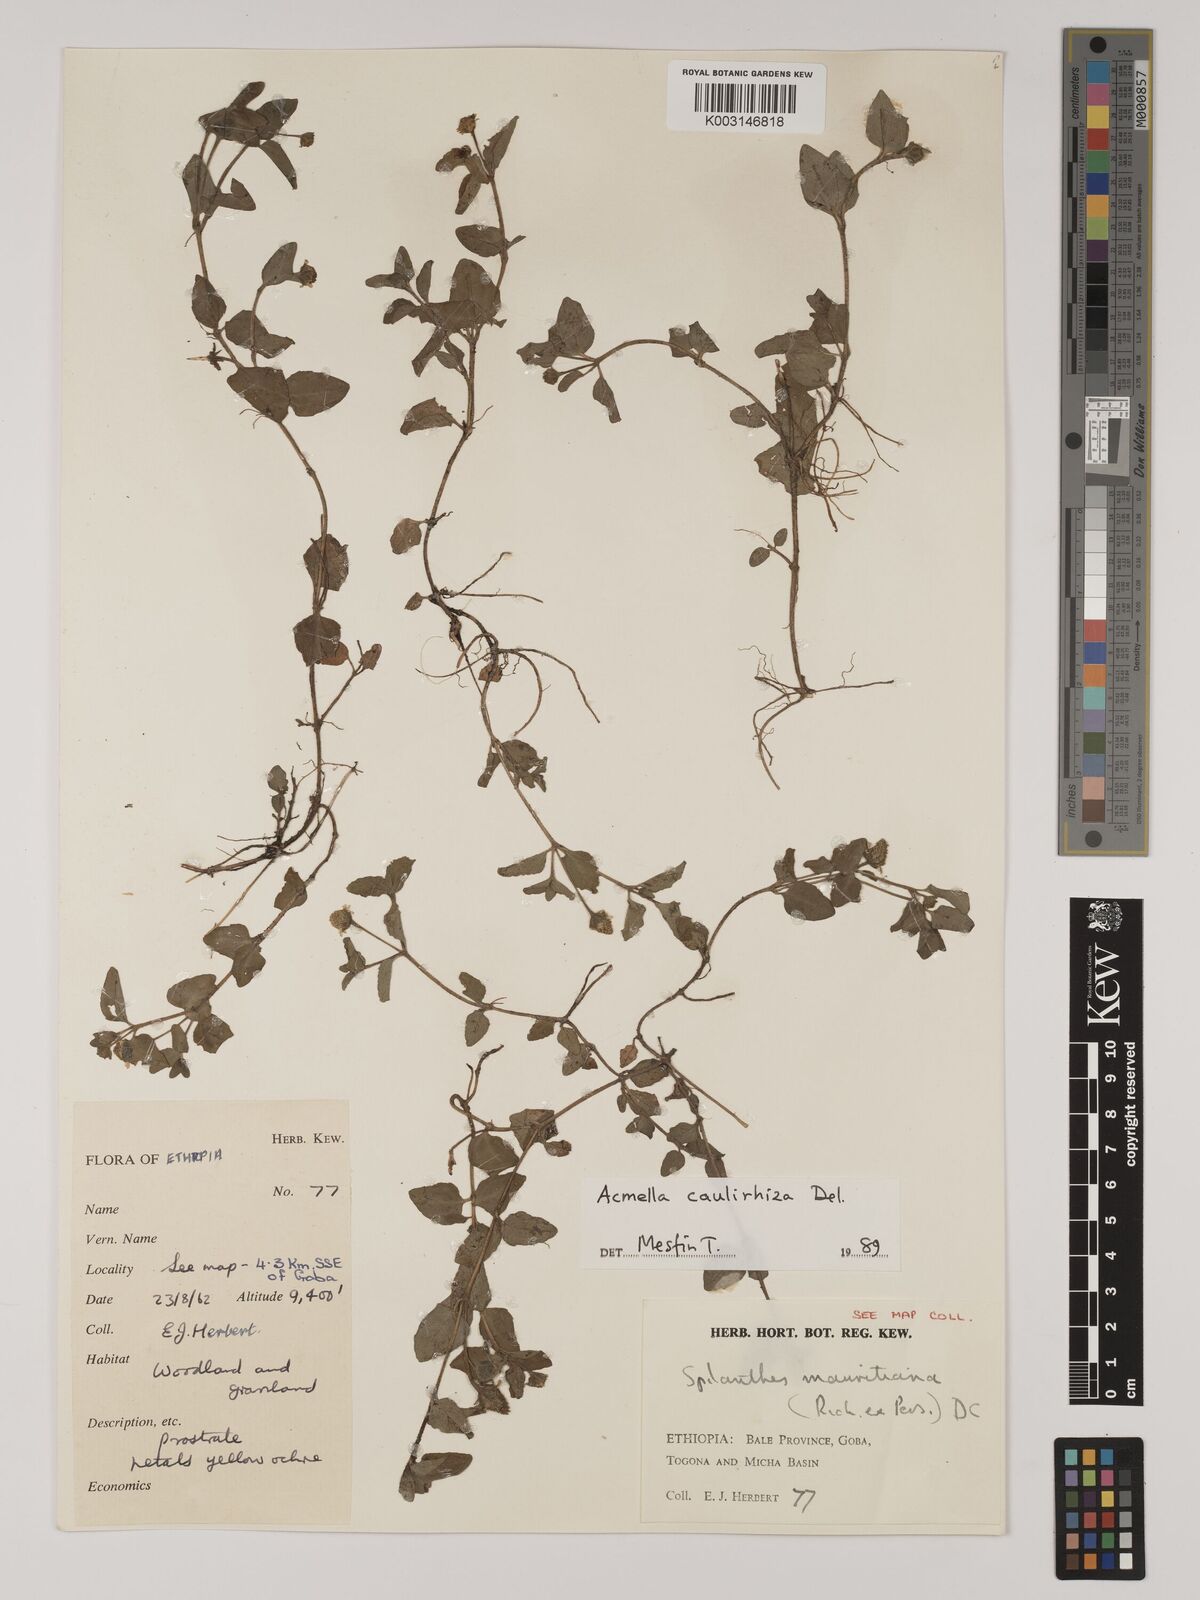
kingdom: Plantae
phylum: Tracheophyta
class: Magnoliopsida
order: Asterales
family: Asteraceae
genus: Blainvillea
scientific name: Blainvillea acmella
